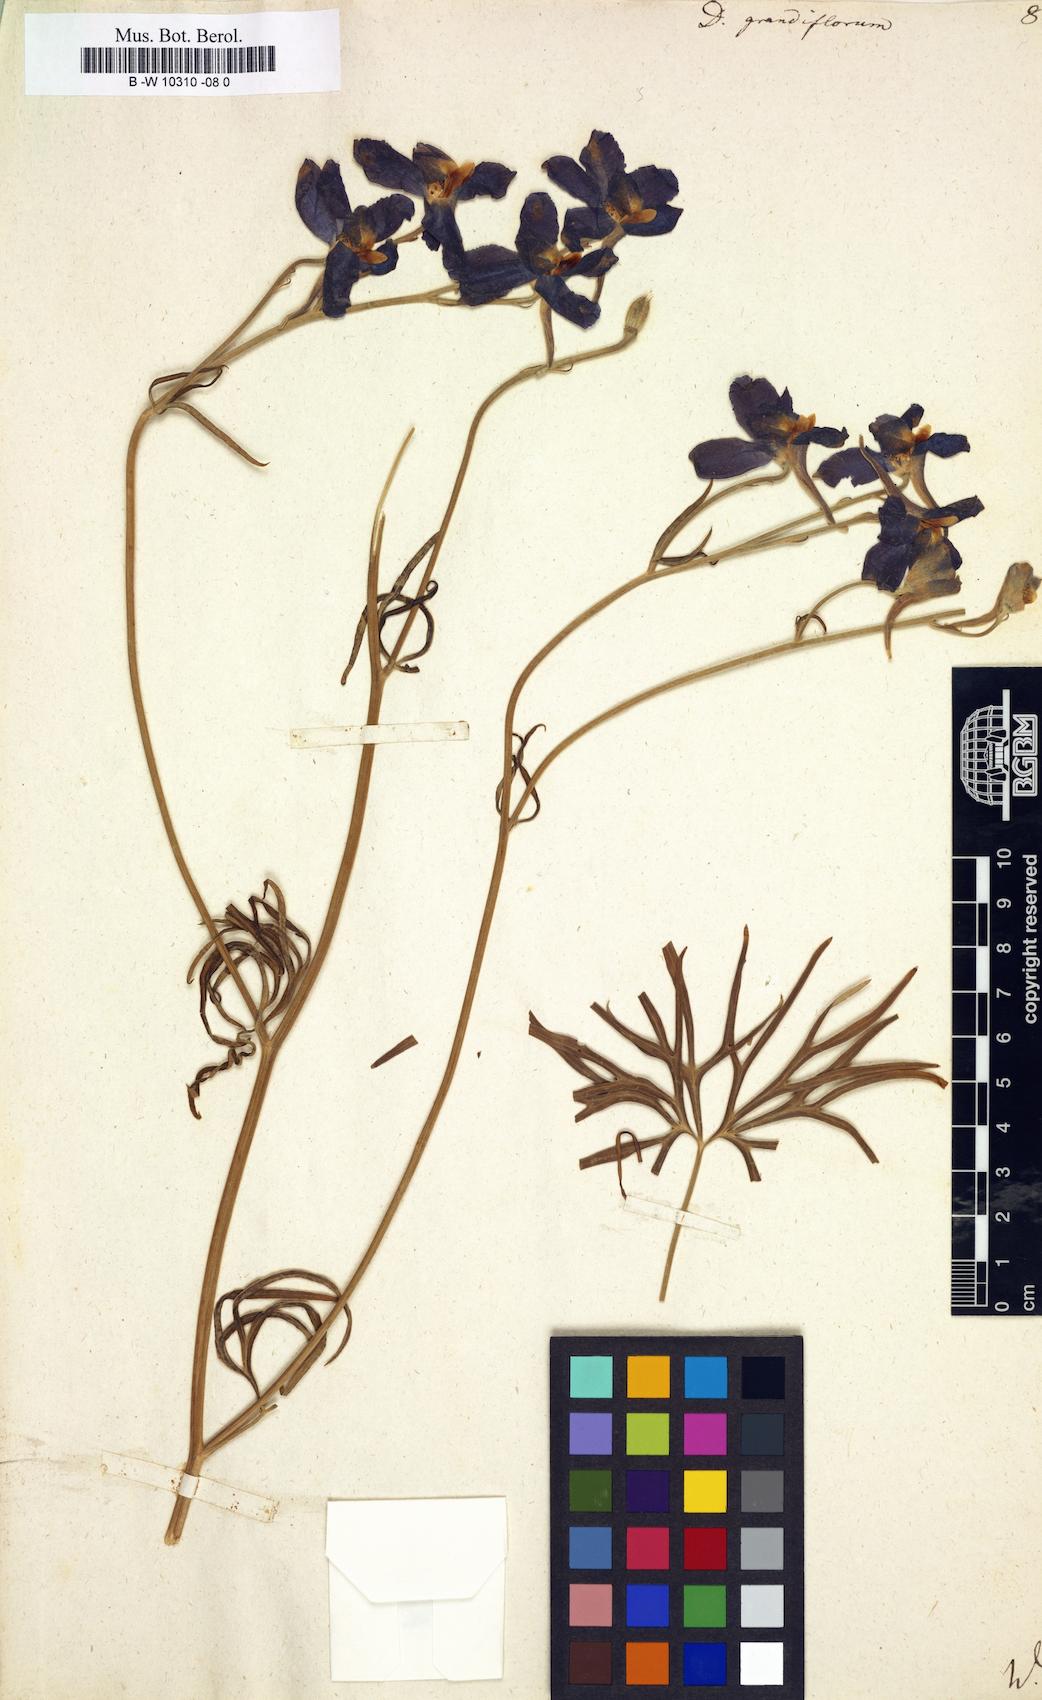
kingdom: Plantae
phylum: Tracheophyta
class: Magnoliopsida
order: Ranunculales
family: Ranunculaceae
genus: Delphinium
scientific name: Delphinium grandiflorum
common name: Siberian larkspur
